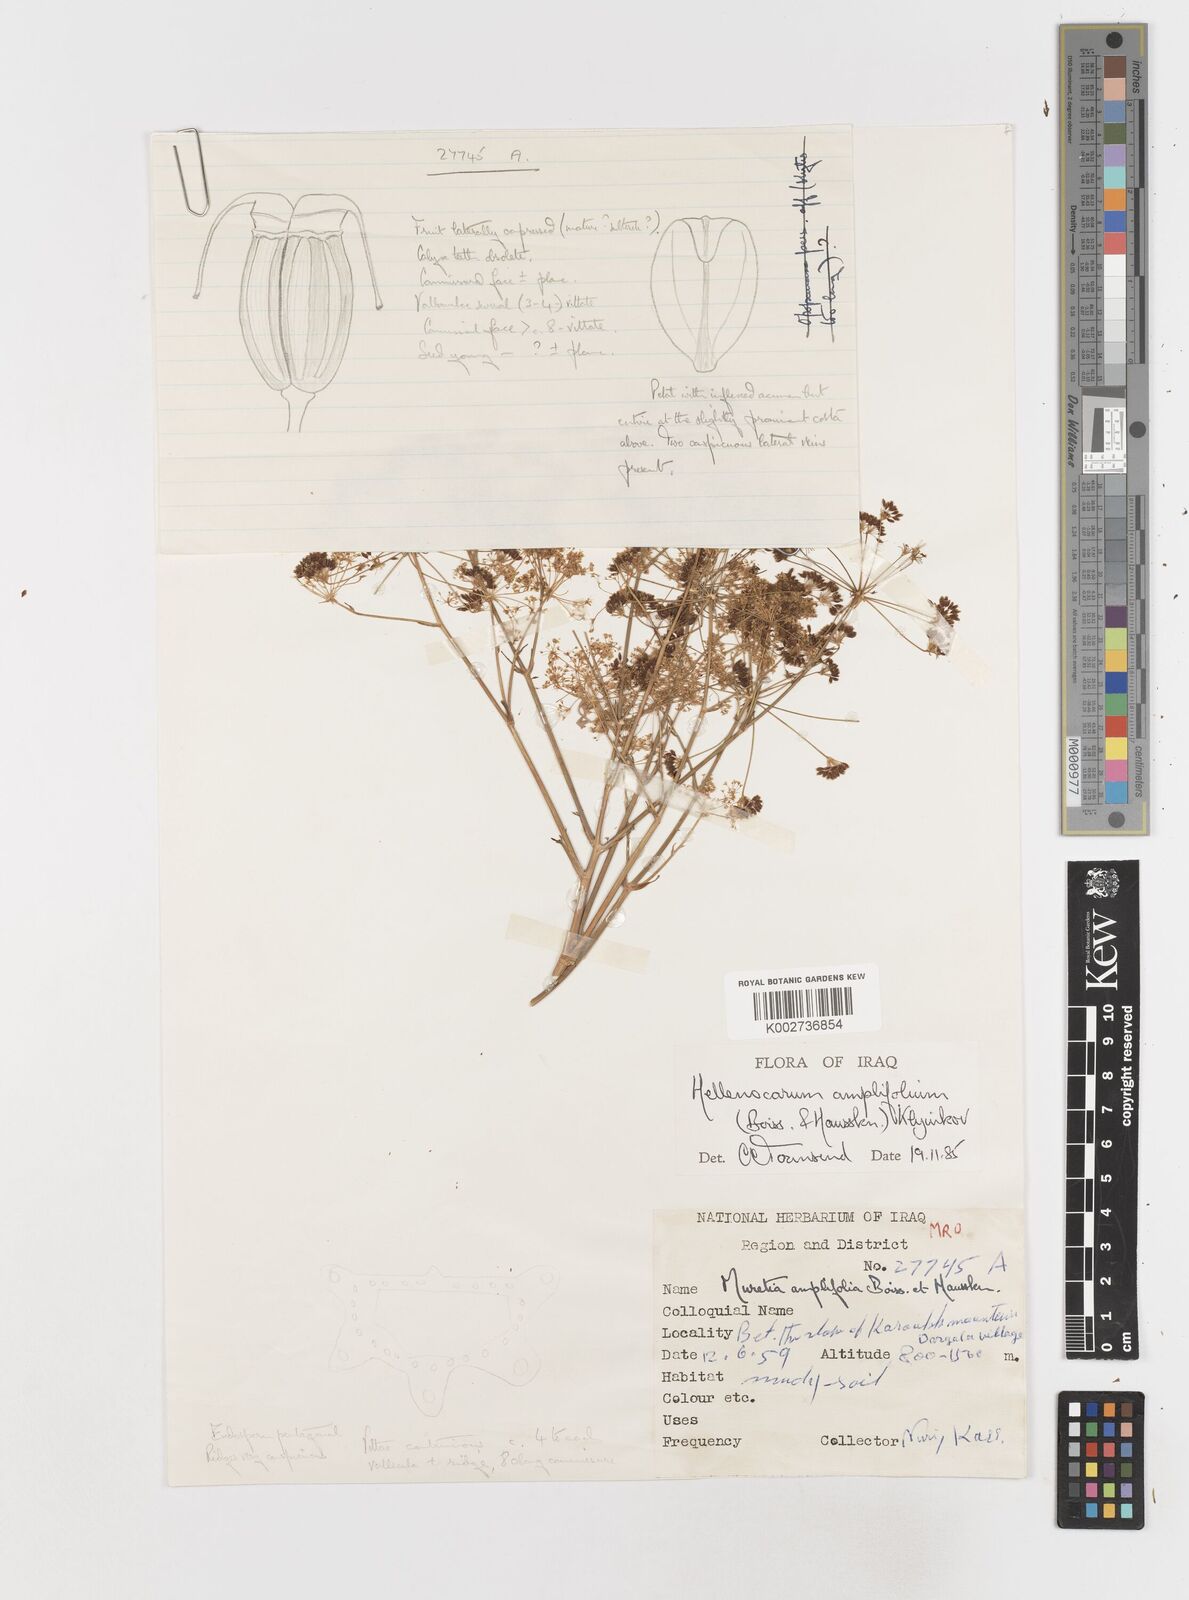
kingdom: Plantae
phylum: Tracheophyta
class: Magnoliopsida
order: Apiales
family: Apiaceae
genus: Neomuretia
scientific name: Neomuretia amplifolia
